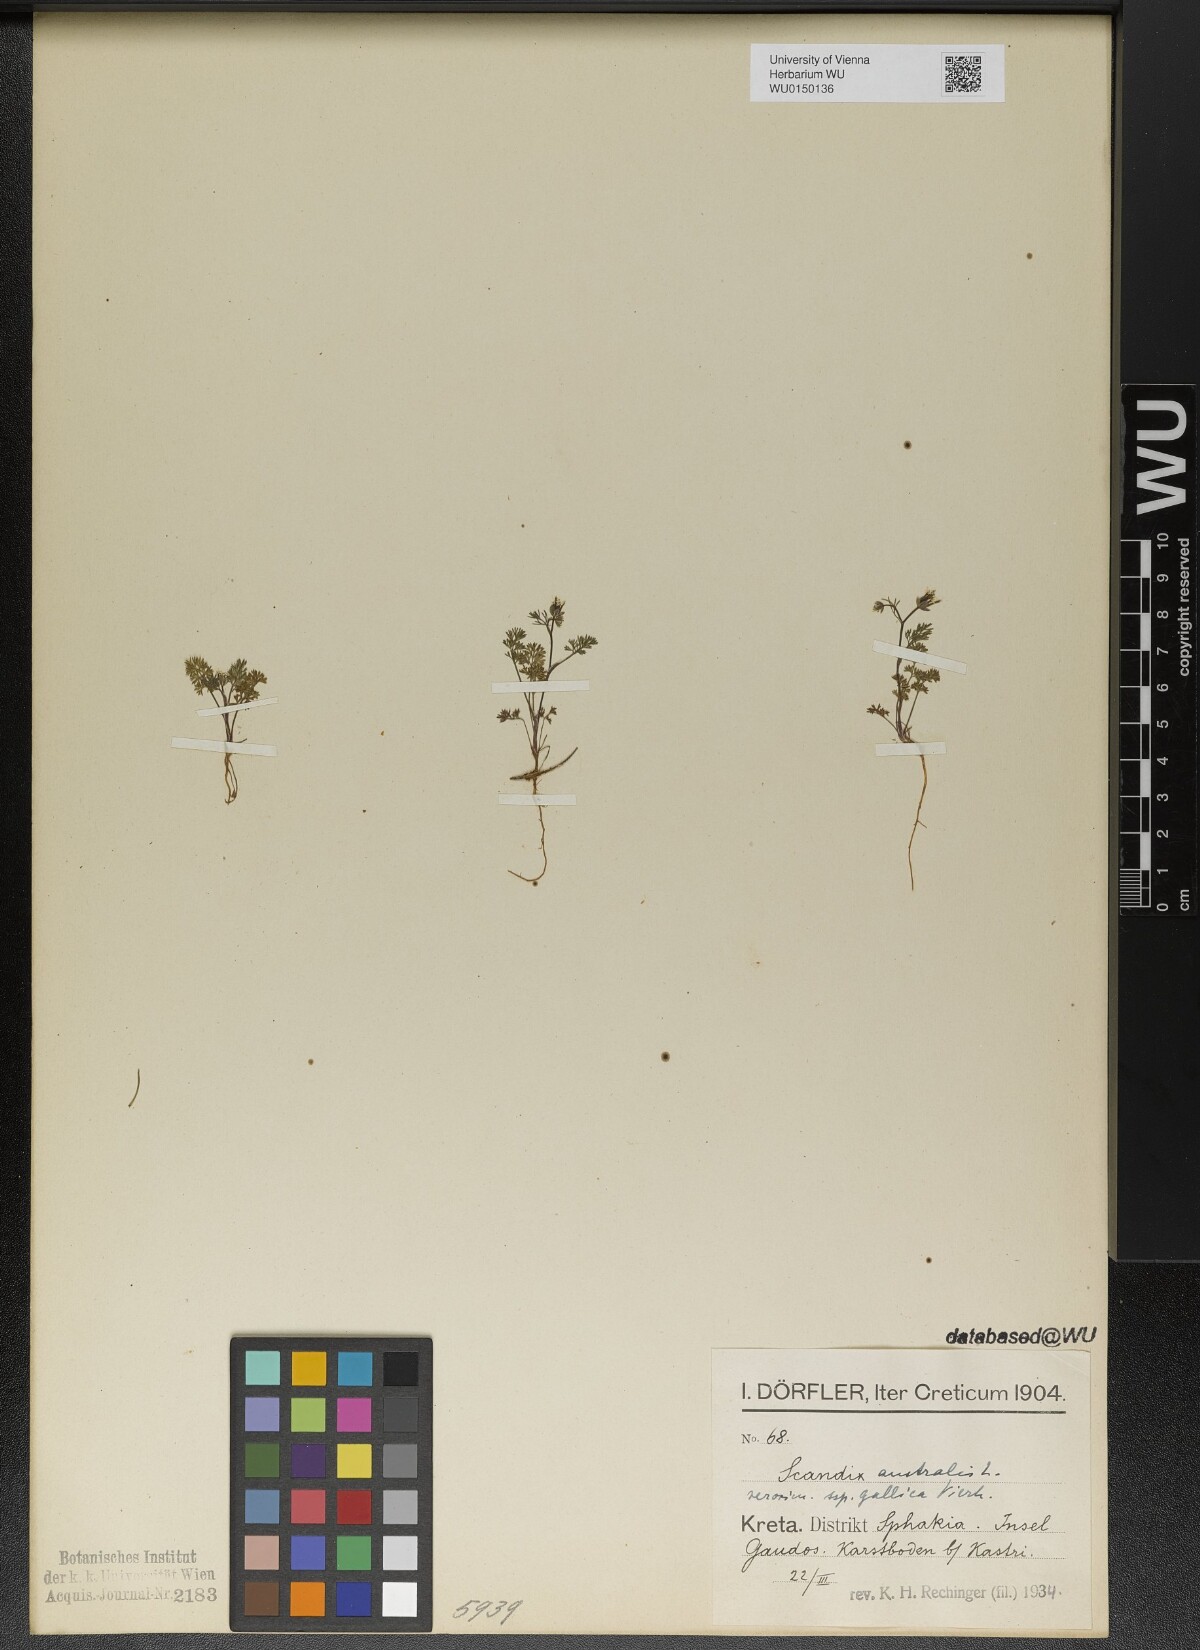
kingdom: Plantae
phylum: Tracheophyta
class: Magnoliopsida
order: Apiales
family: Apiaceae
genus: Scandix
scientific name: Scandix australis
